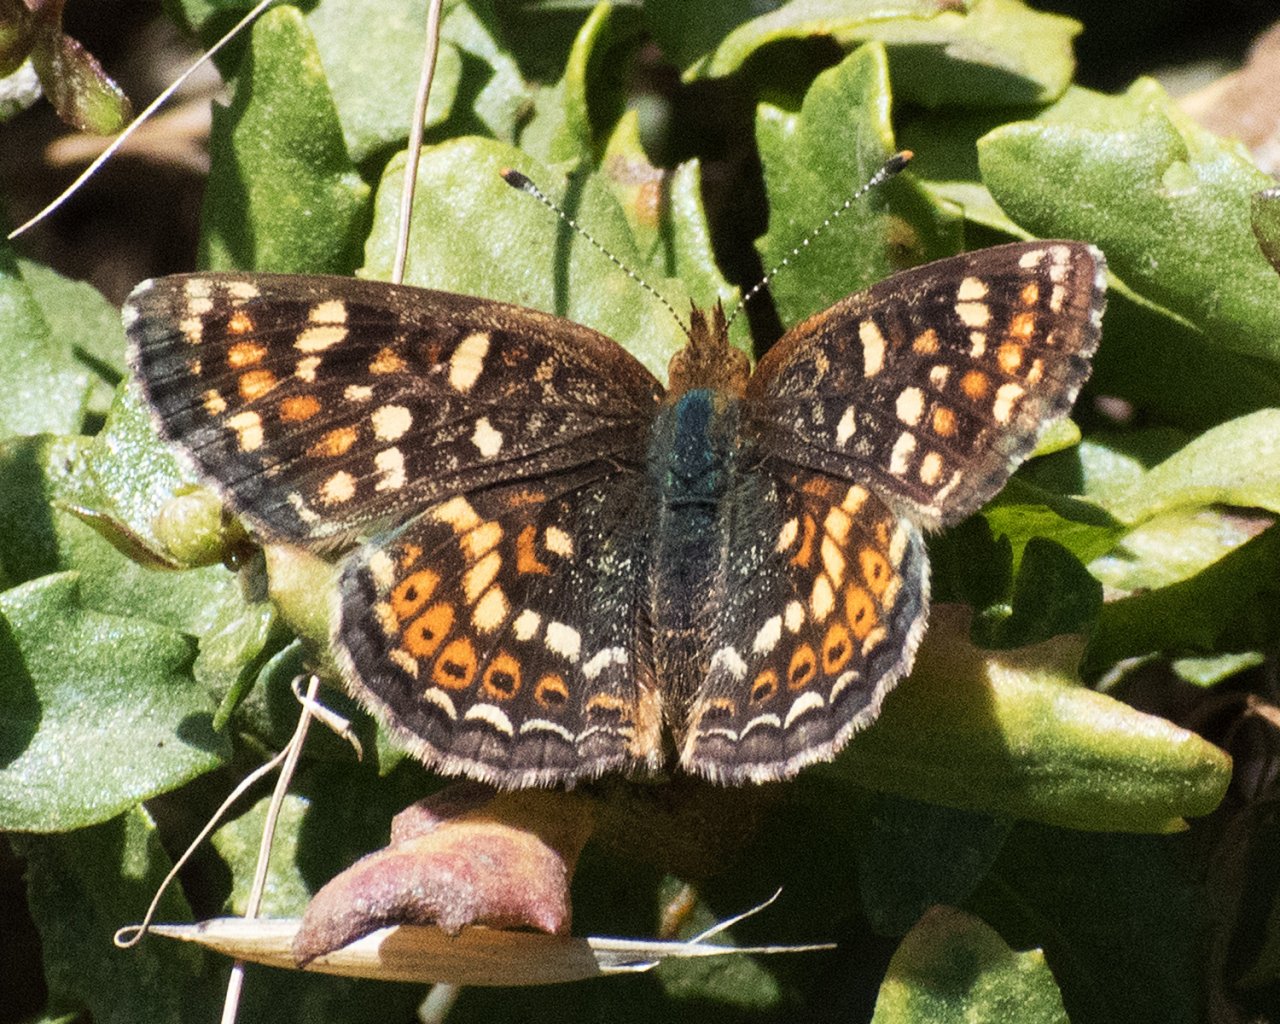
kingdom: Animalia
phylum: Arthropoda
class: Insecta
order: Lepidoptera
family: Nymphalidae
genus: Phyciodes
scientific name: Phyciodes tharos
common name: Field Crescent
